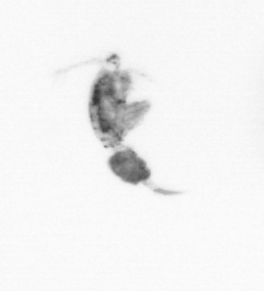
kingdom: Animalia
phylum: Arthropoda
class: Copepoda
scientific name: Copepoda
